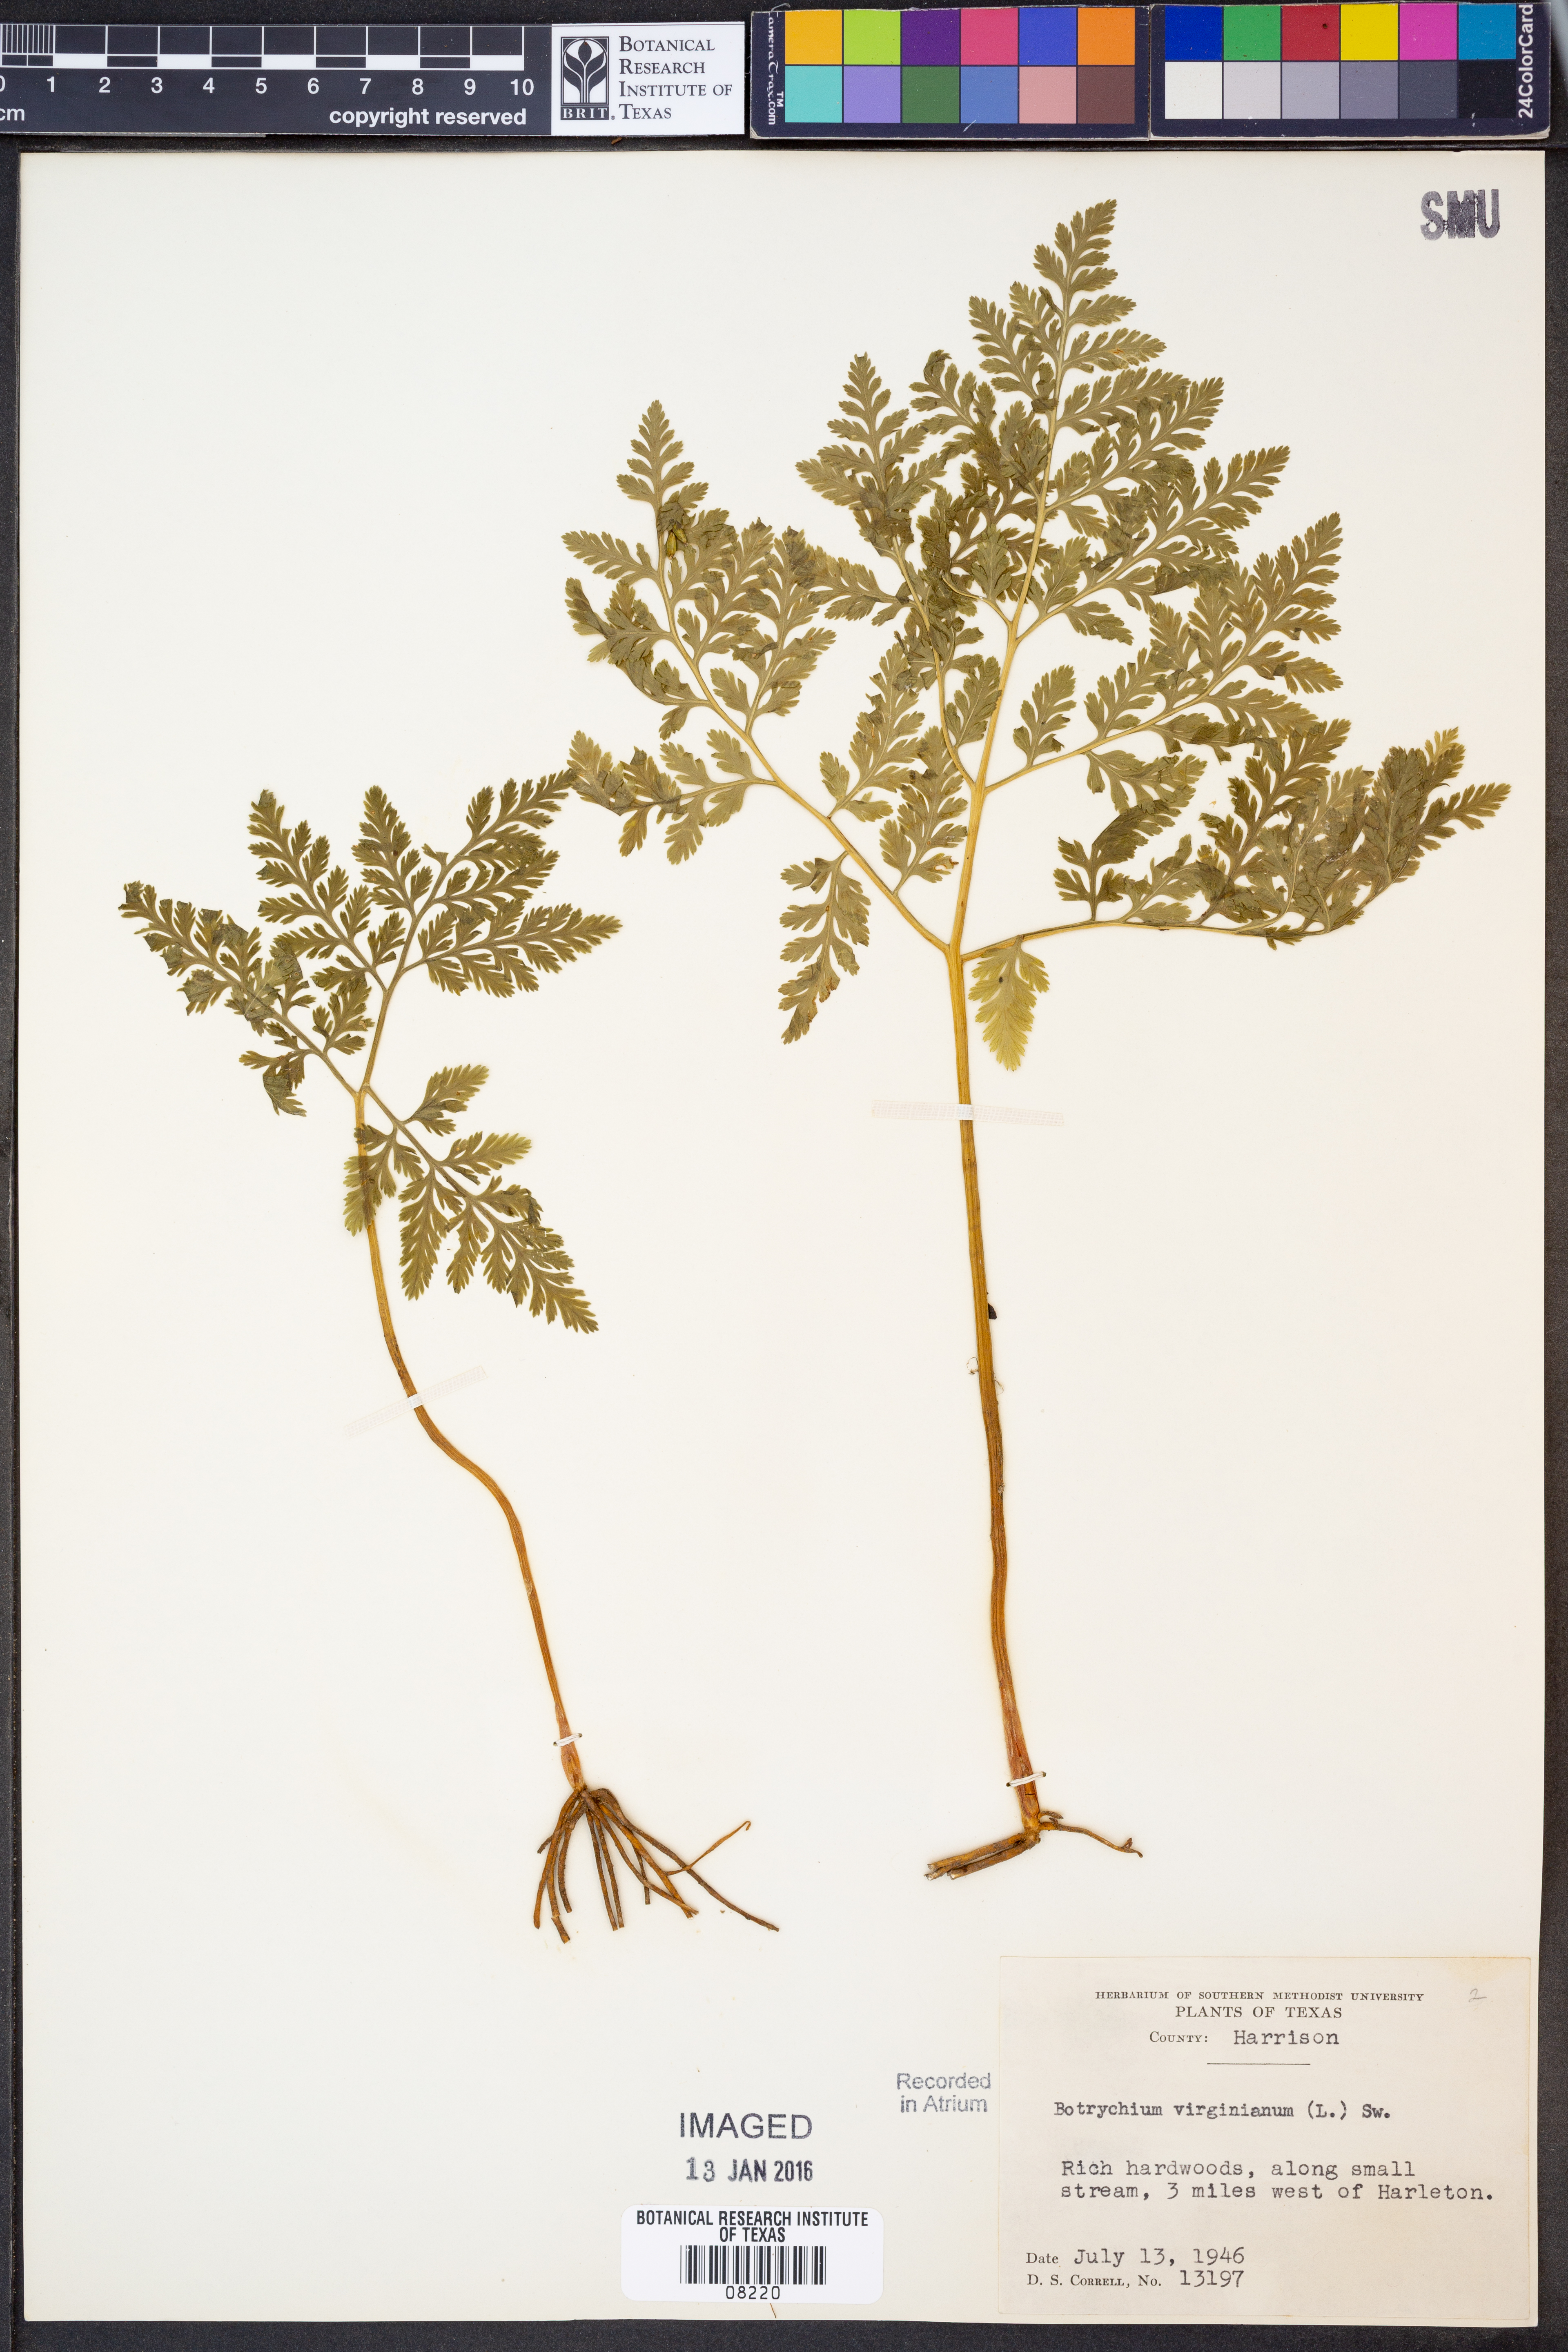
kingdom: Plantae
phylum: Tracheophyta
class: Polypodiopsida
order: Ophioglossales
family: Ophioglossaceae
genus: Botrypus
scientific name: Botrypus virginianus
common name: Common grapefern
